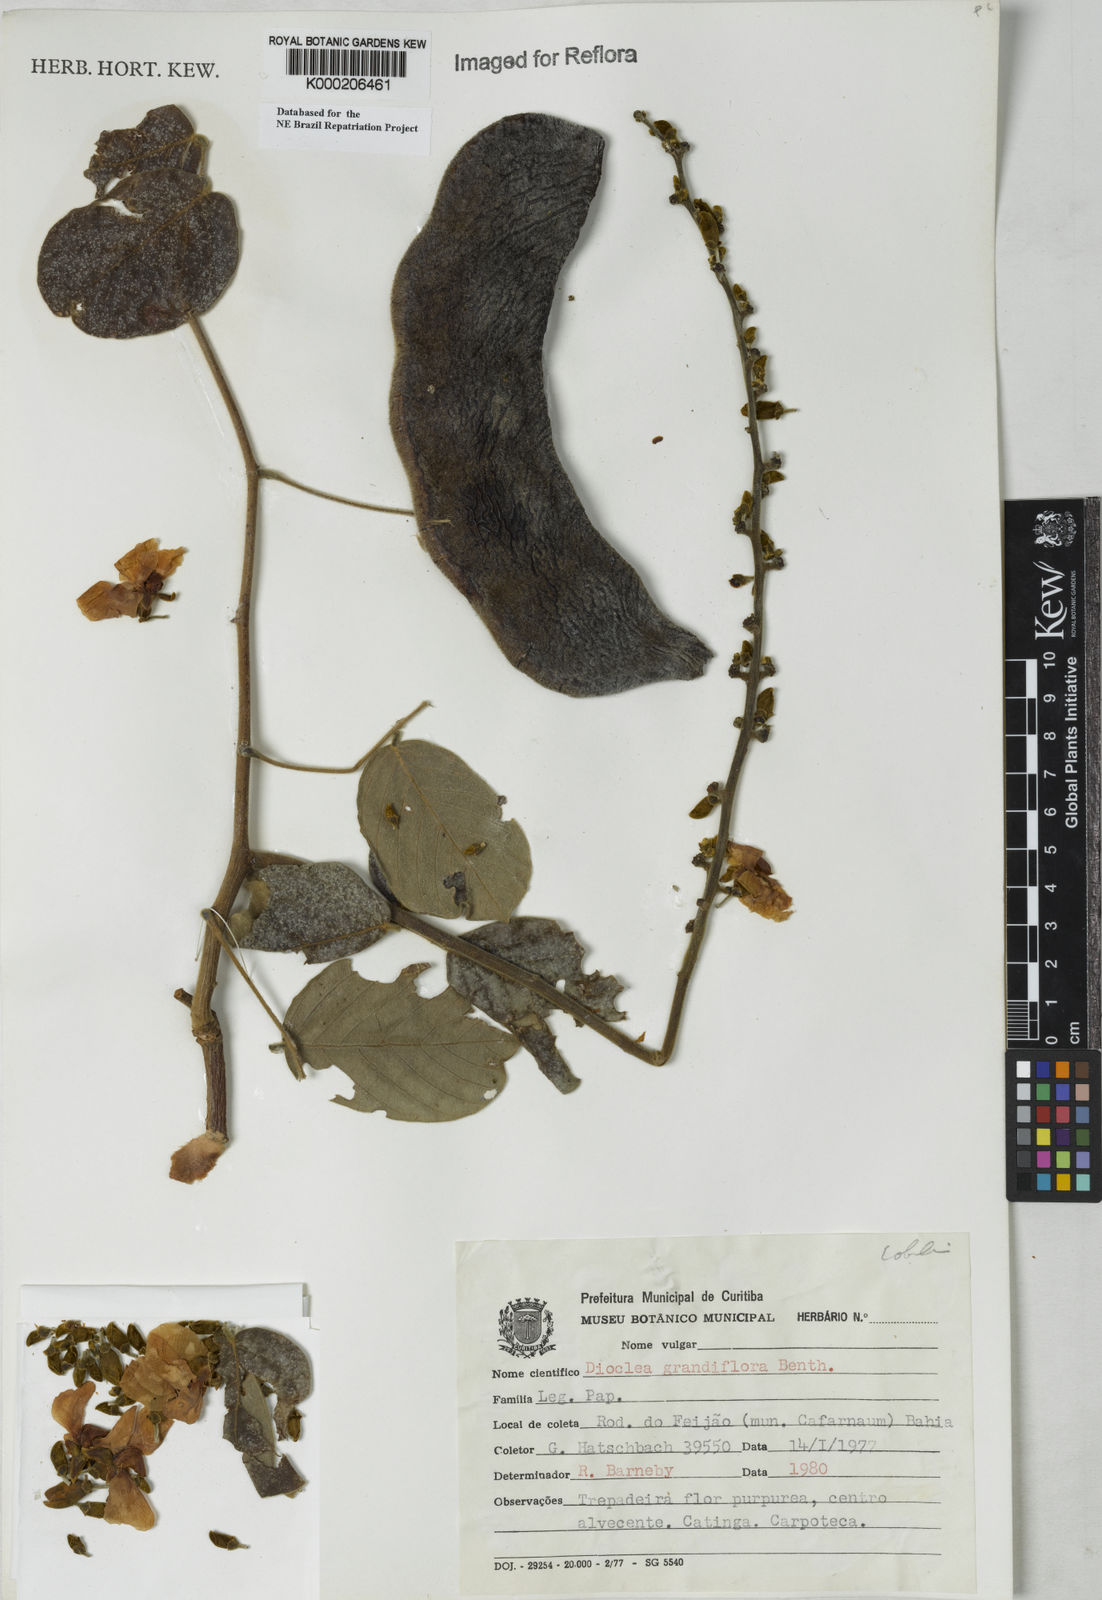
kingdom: Plantae
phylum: Tracheophyta
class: Magnoliopsida
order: Fabales
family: Fabaceae
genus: Macropsychanthus
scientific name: Macropsychanthus grandiflorus
